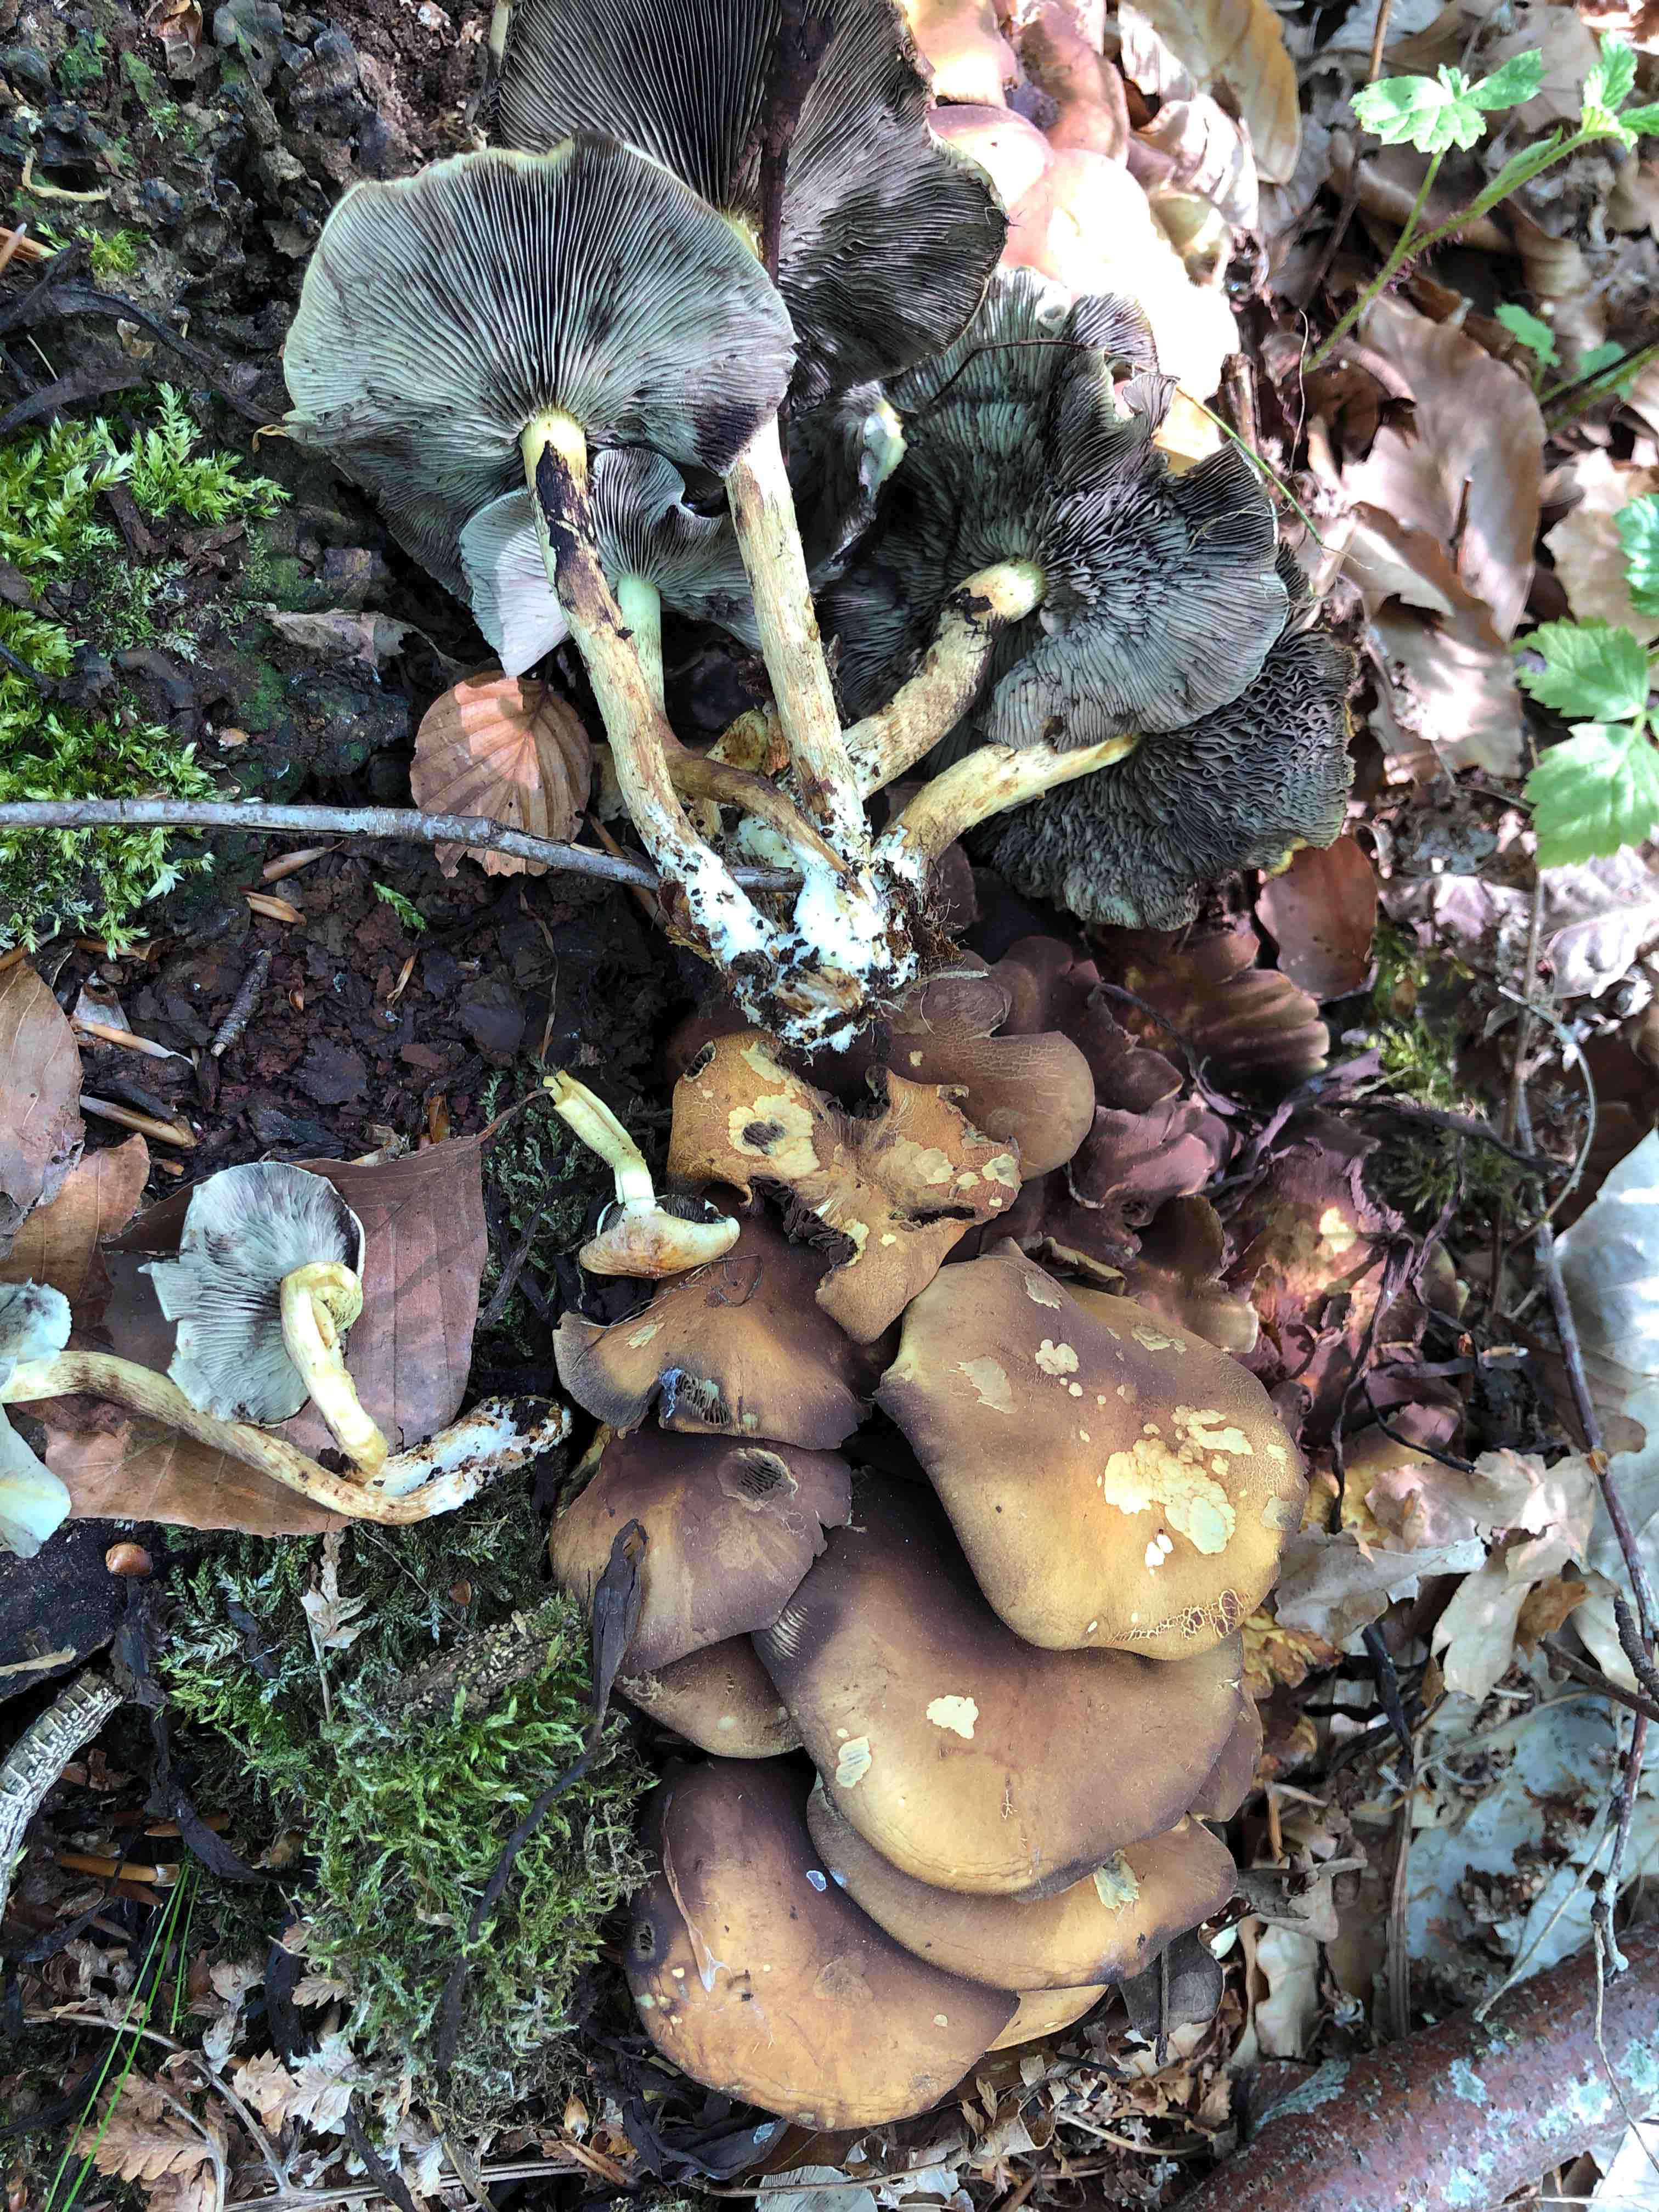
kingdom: Fungi
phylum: Basidiomycota
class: Agaricomycetes
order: Agaricales
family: Strophariaceae
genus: Hypholoma
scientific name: Hypholoma fasciculare
